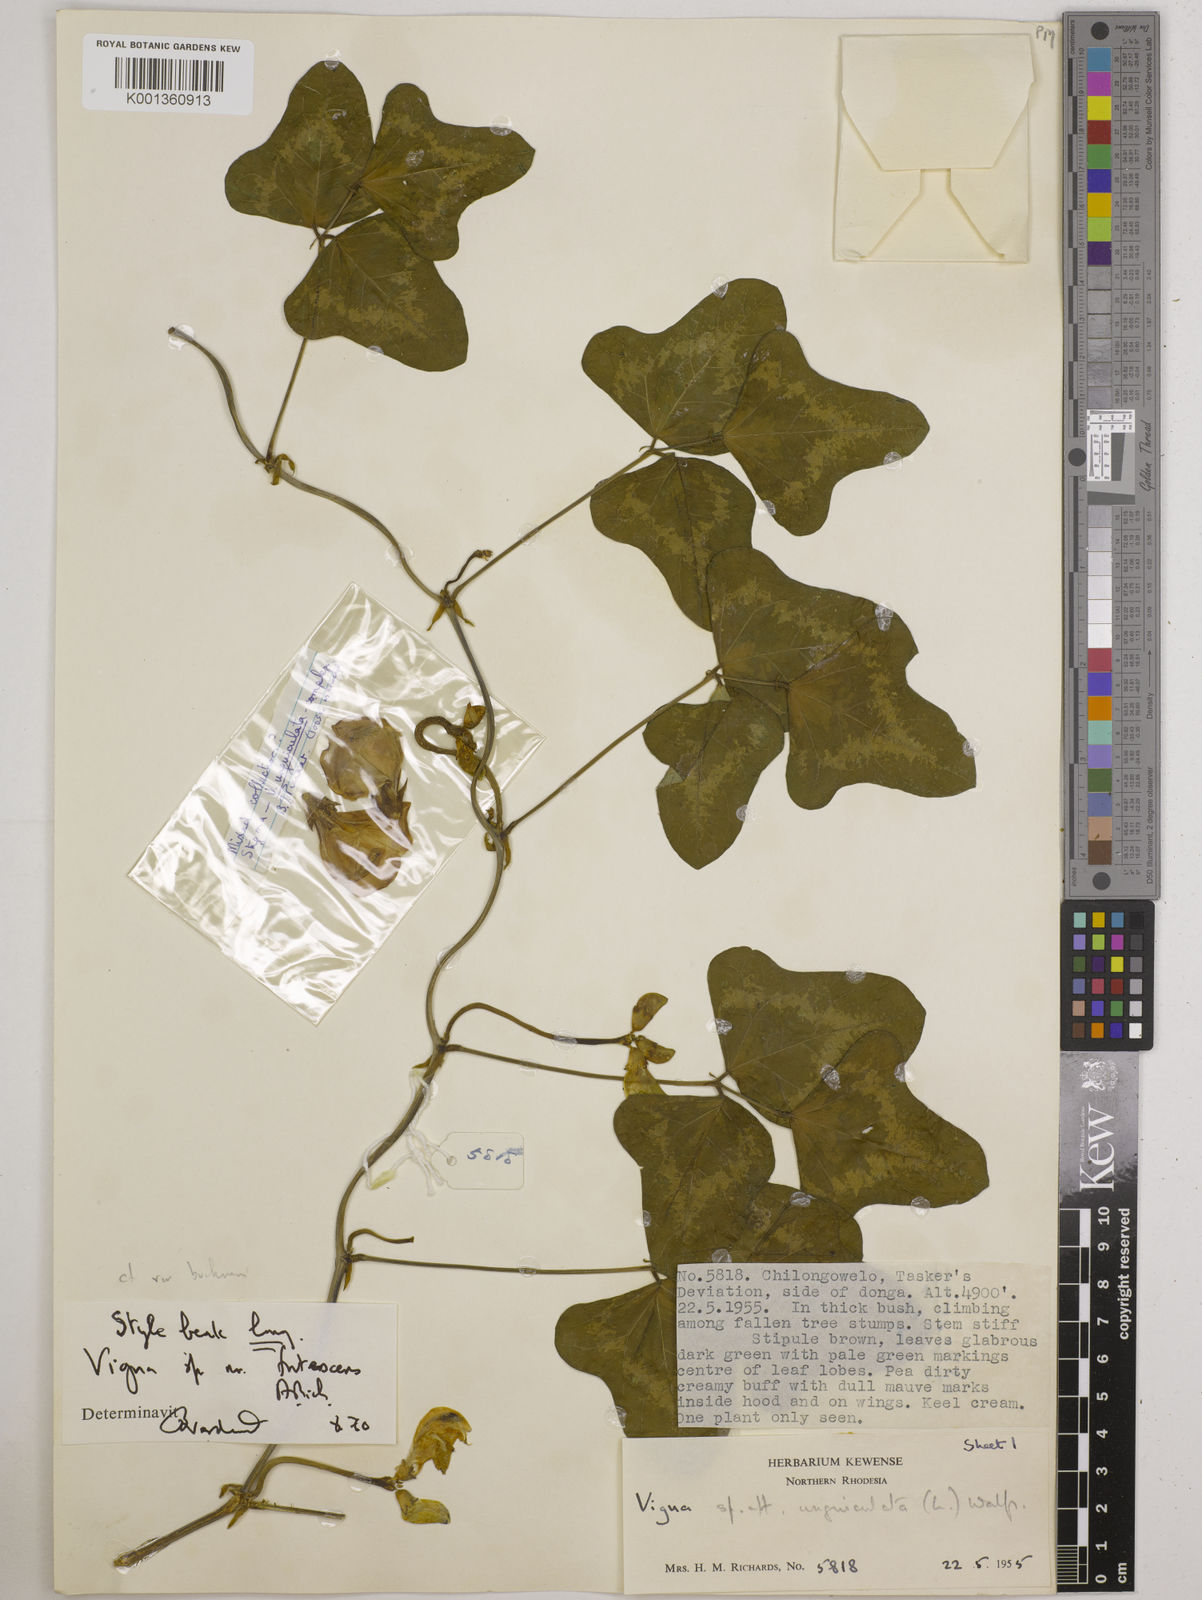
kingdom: Plantae
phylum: Tracheophyta
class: Magnoliopsida
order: Fabales
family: Fabaceae
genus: Vigna
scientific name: Vigna
